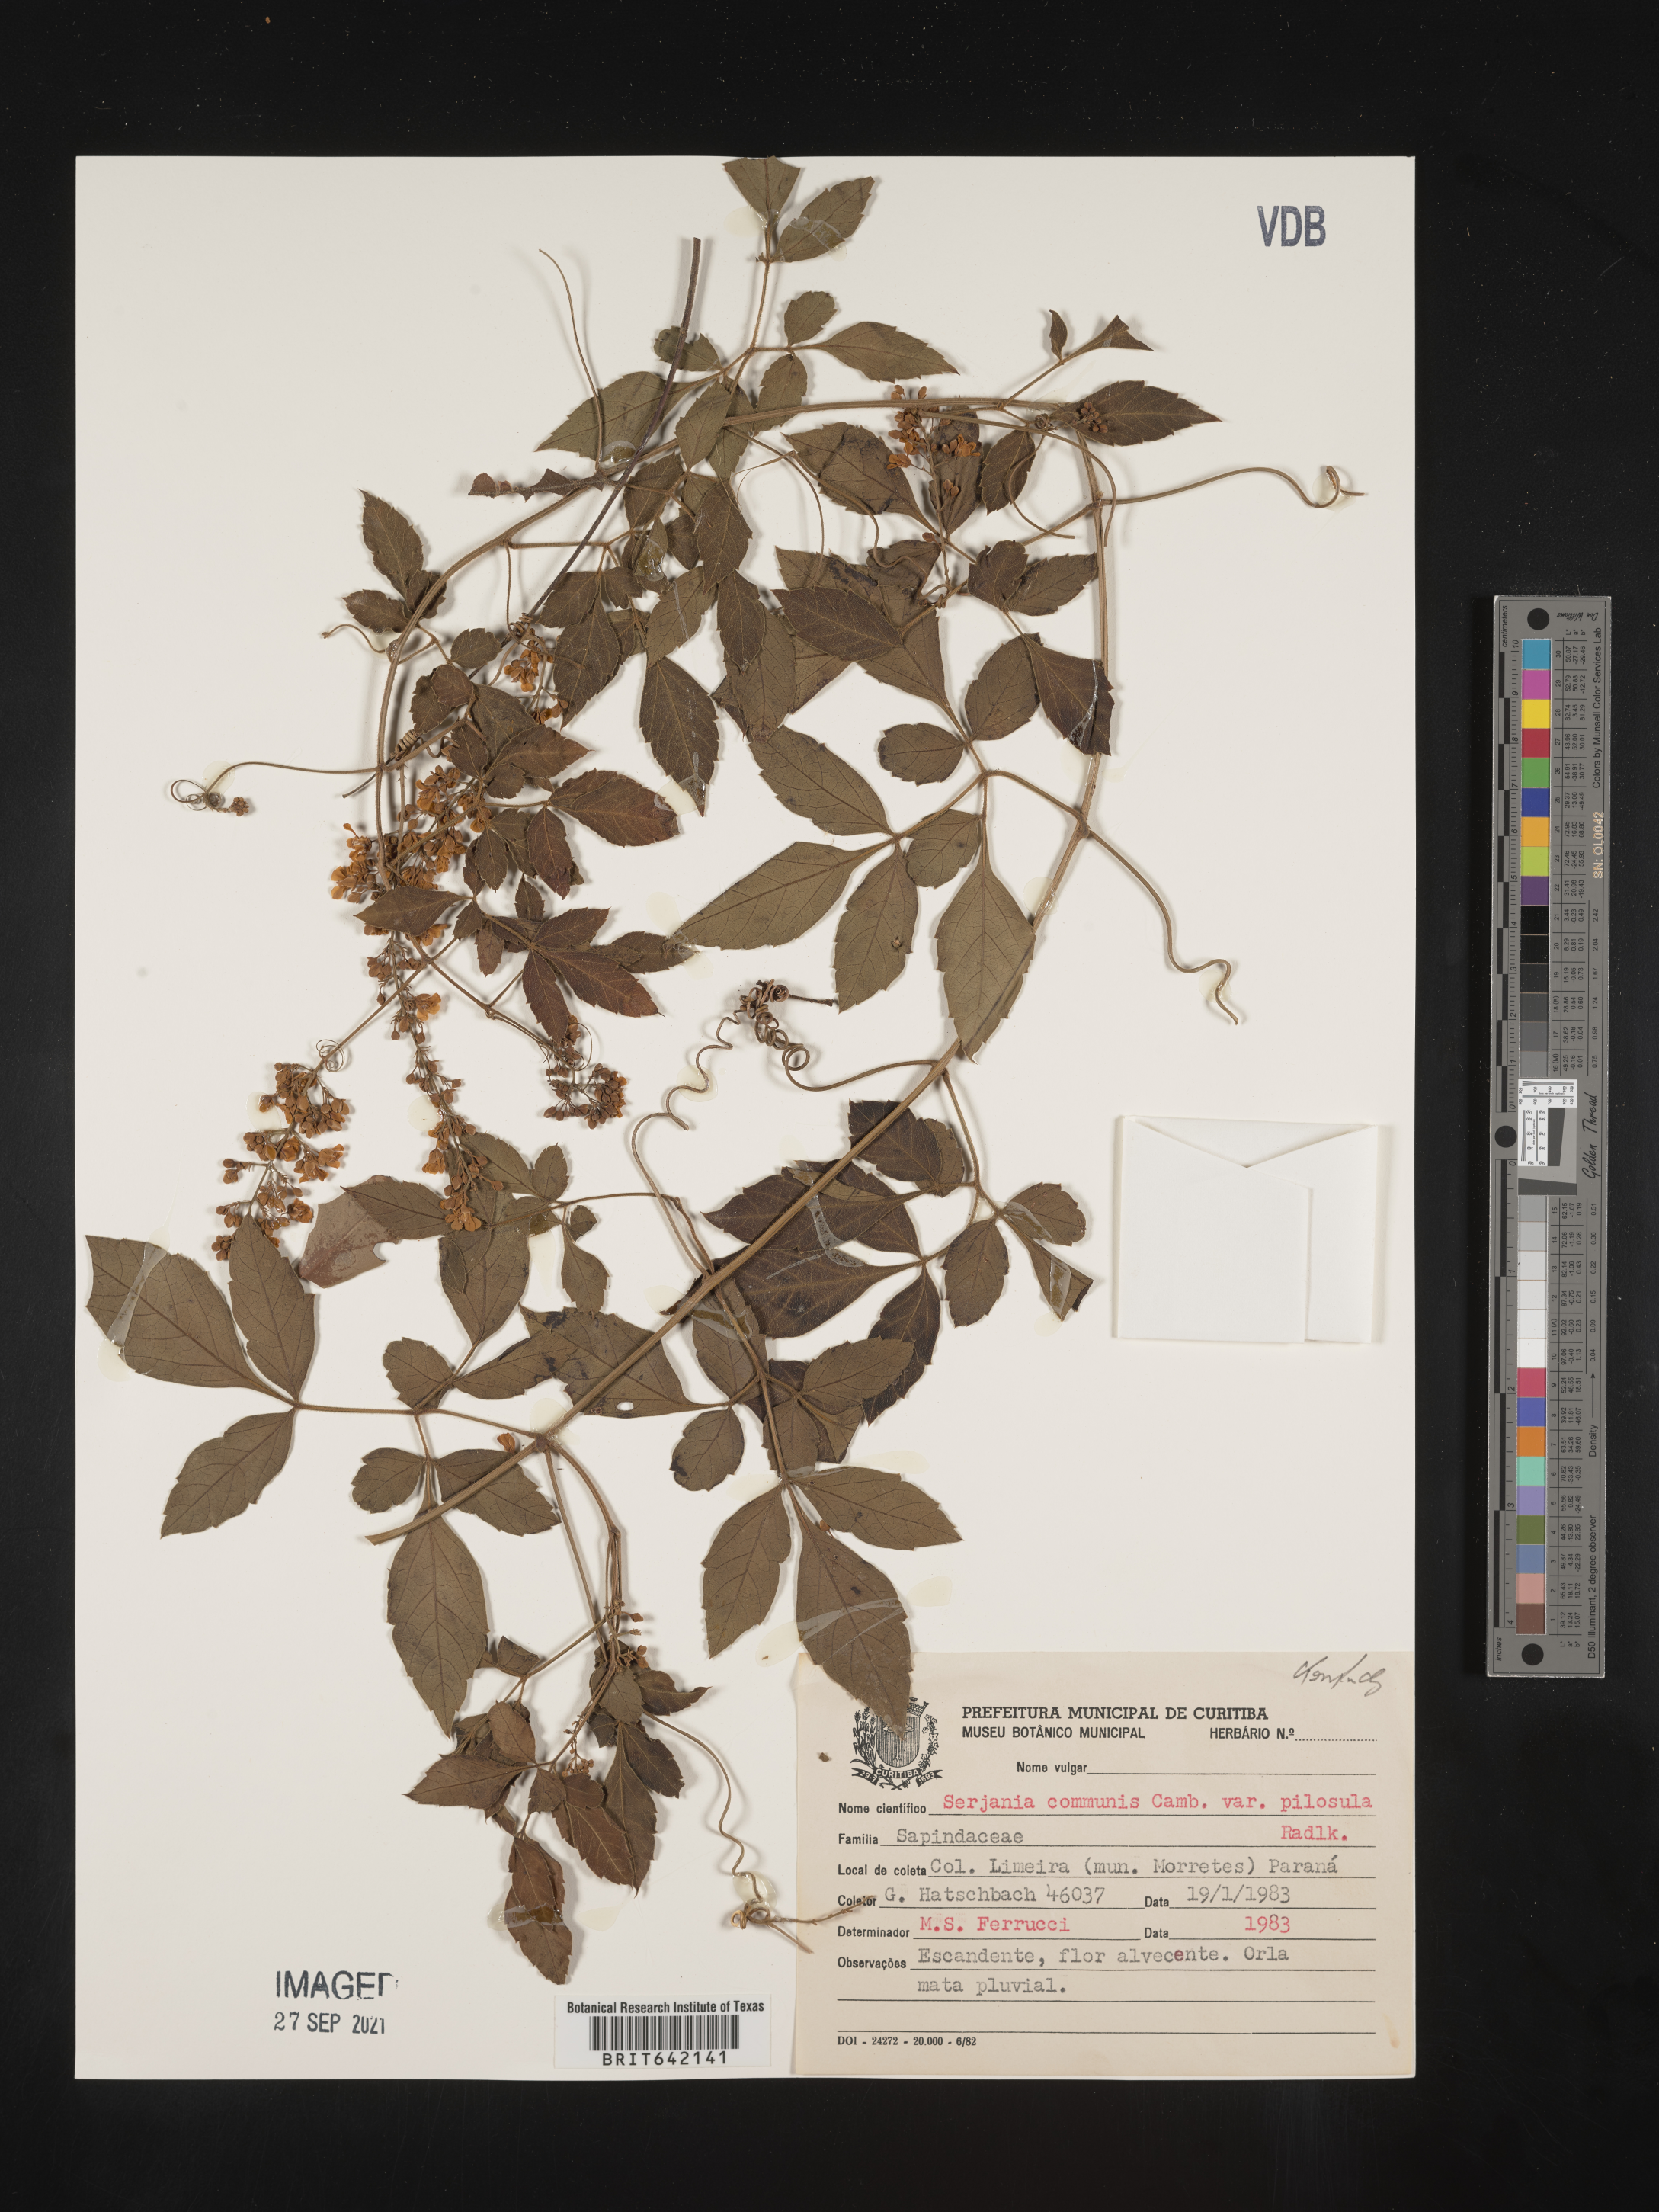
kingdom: Plantae
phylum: Tracheophyta
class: Magnoliopsida
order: Sapindales
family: Sapindaceae
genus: Serjania
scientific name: Serjania
